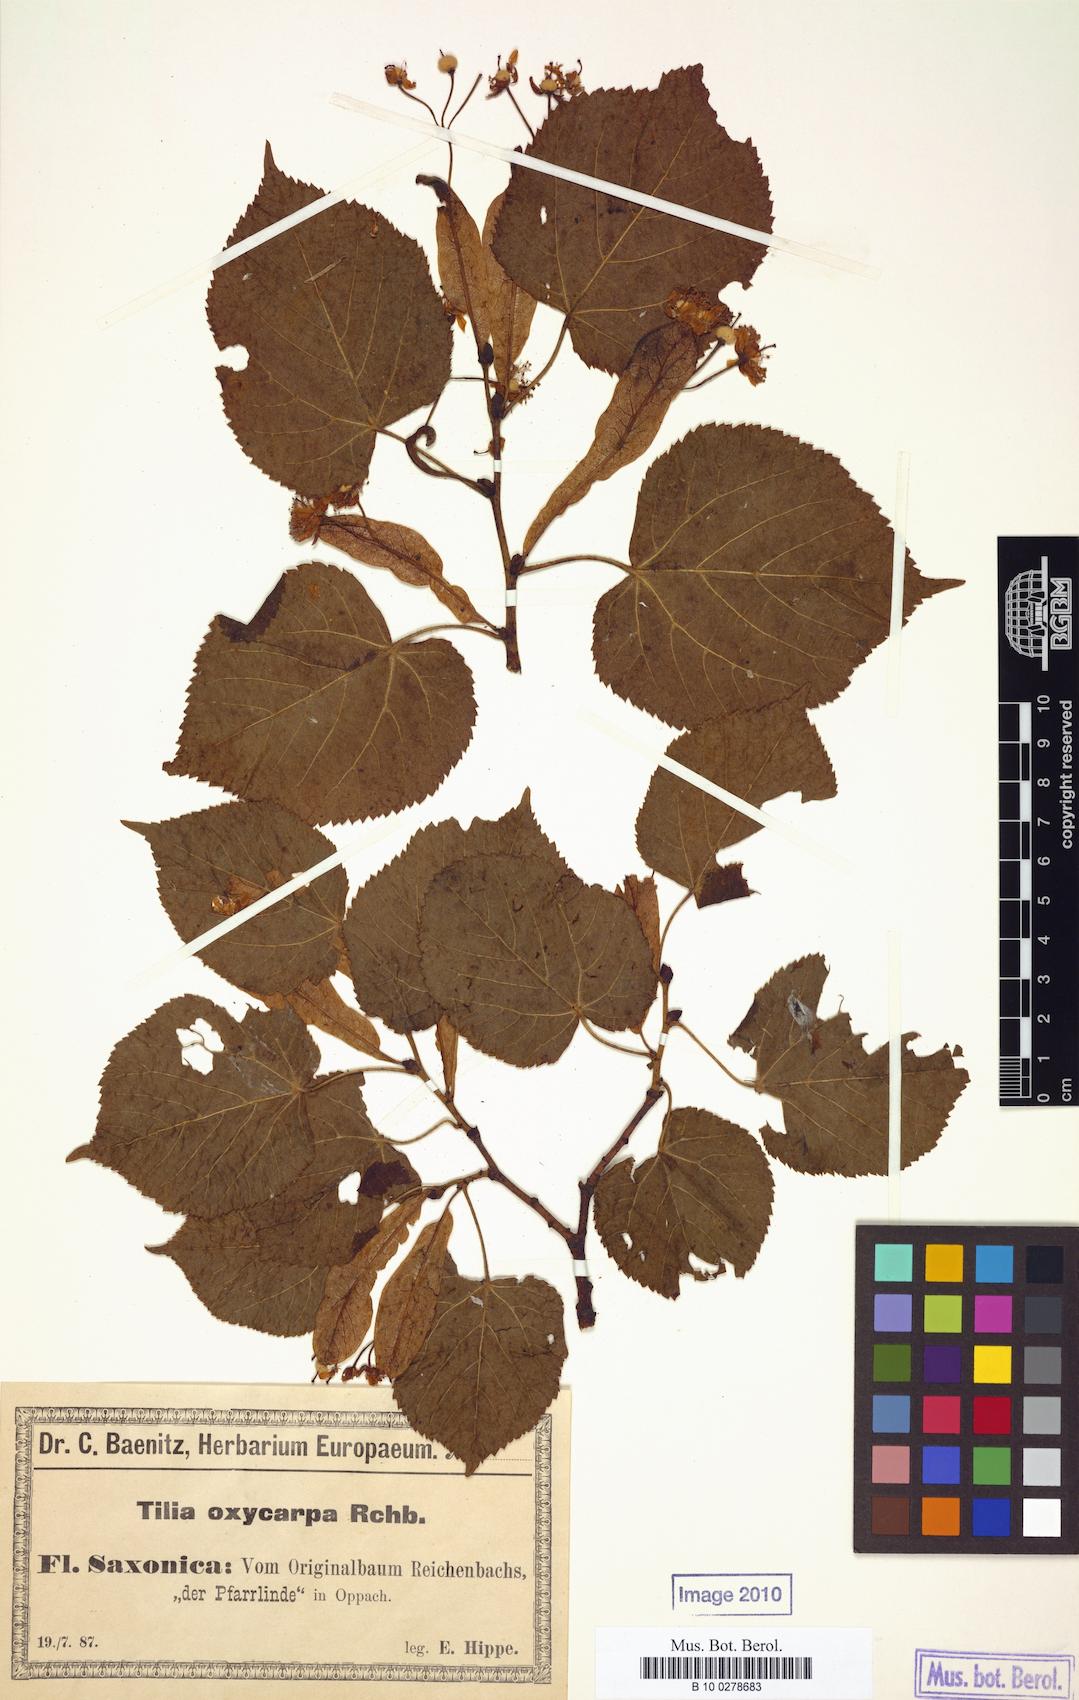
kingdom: Plantae
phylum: Tracheophyta
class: Magnoliopsida
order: Malvales
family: Malvaceae
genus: Tilia
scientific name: Tilia
